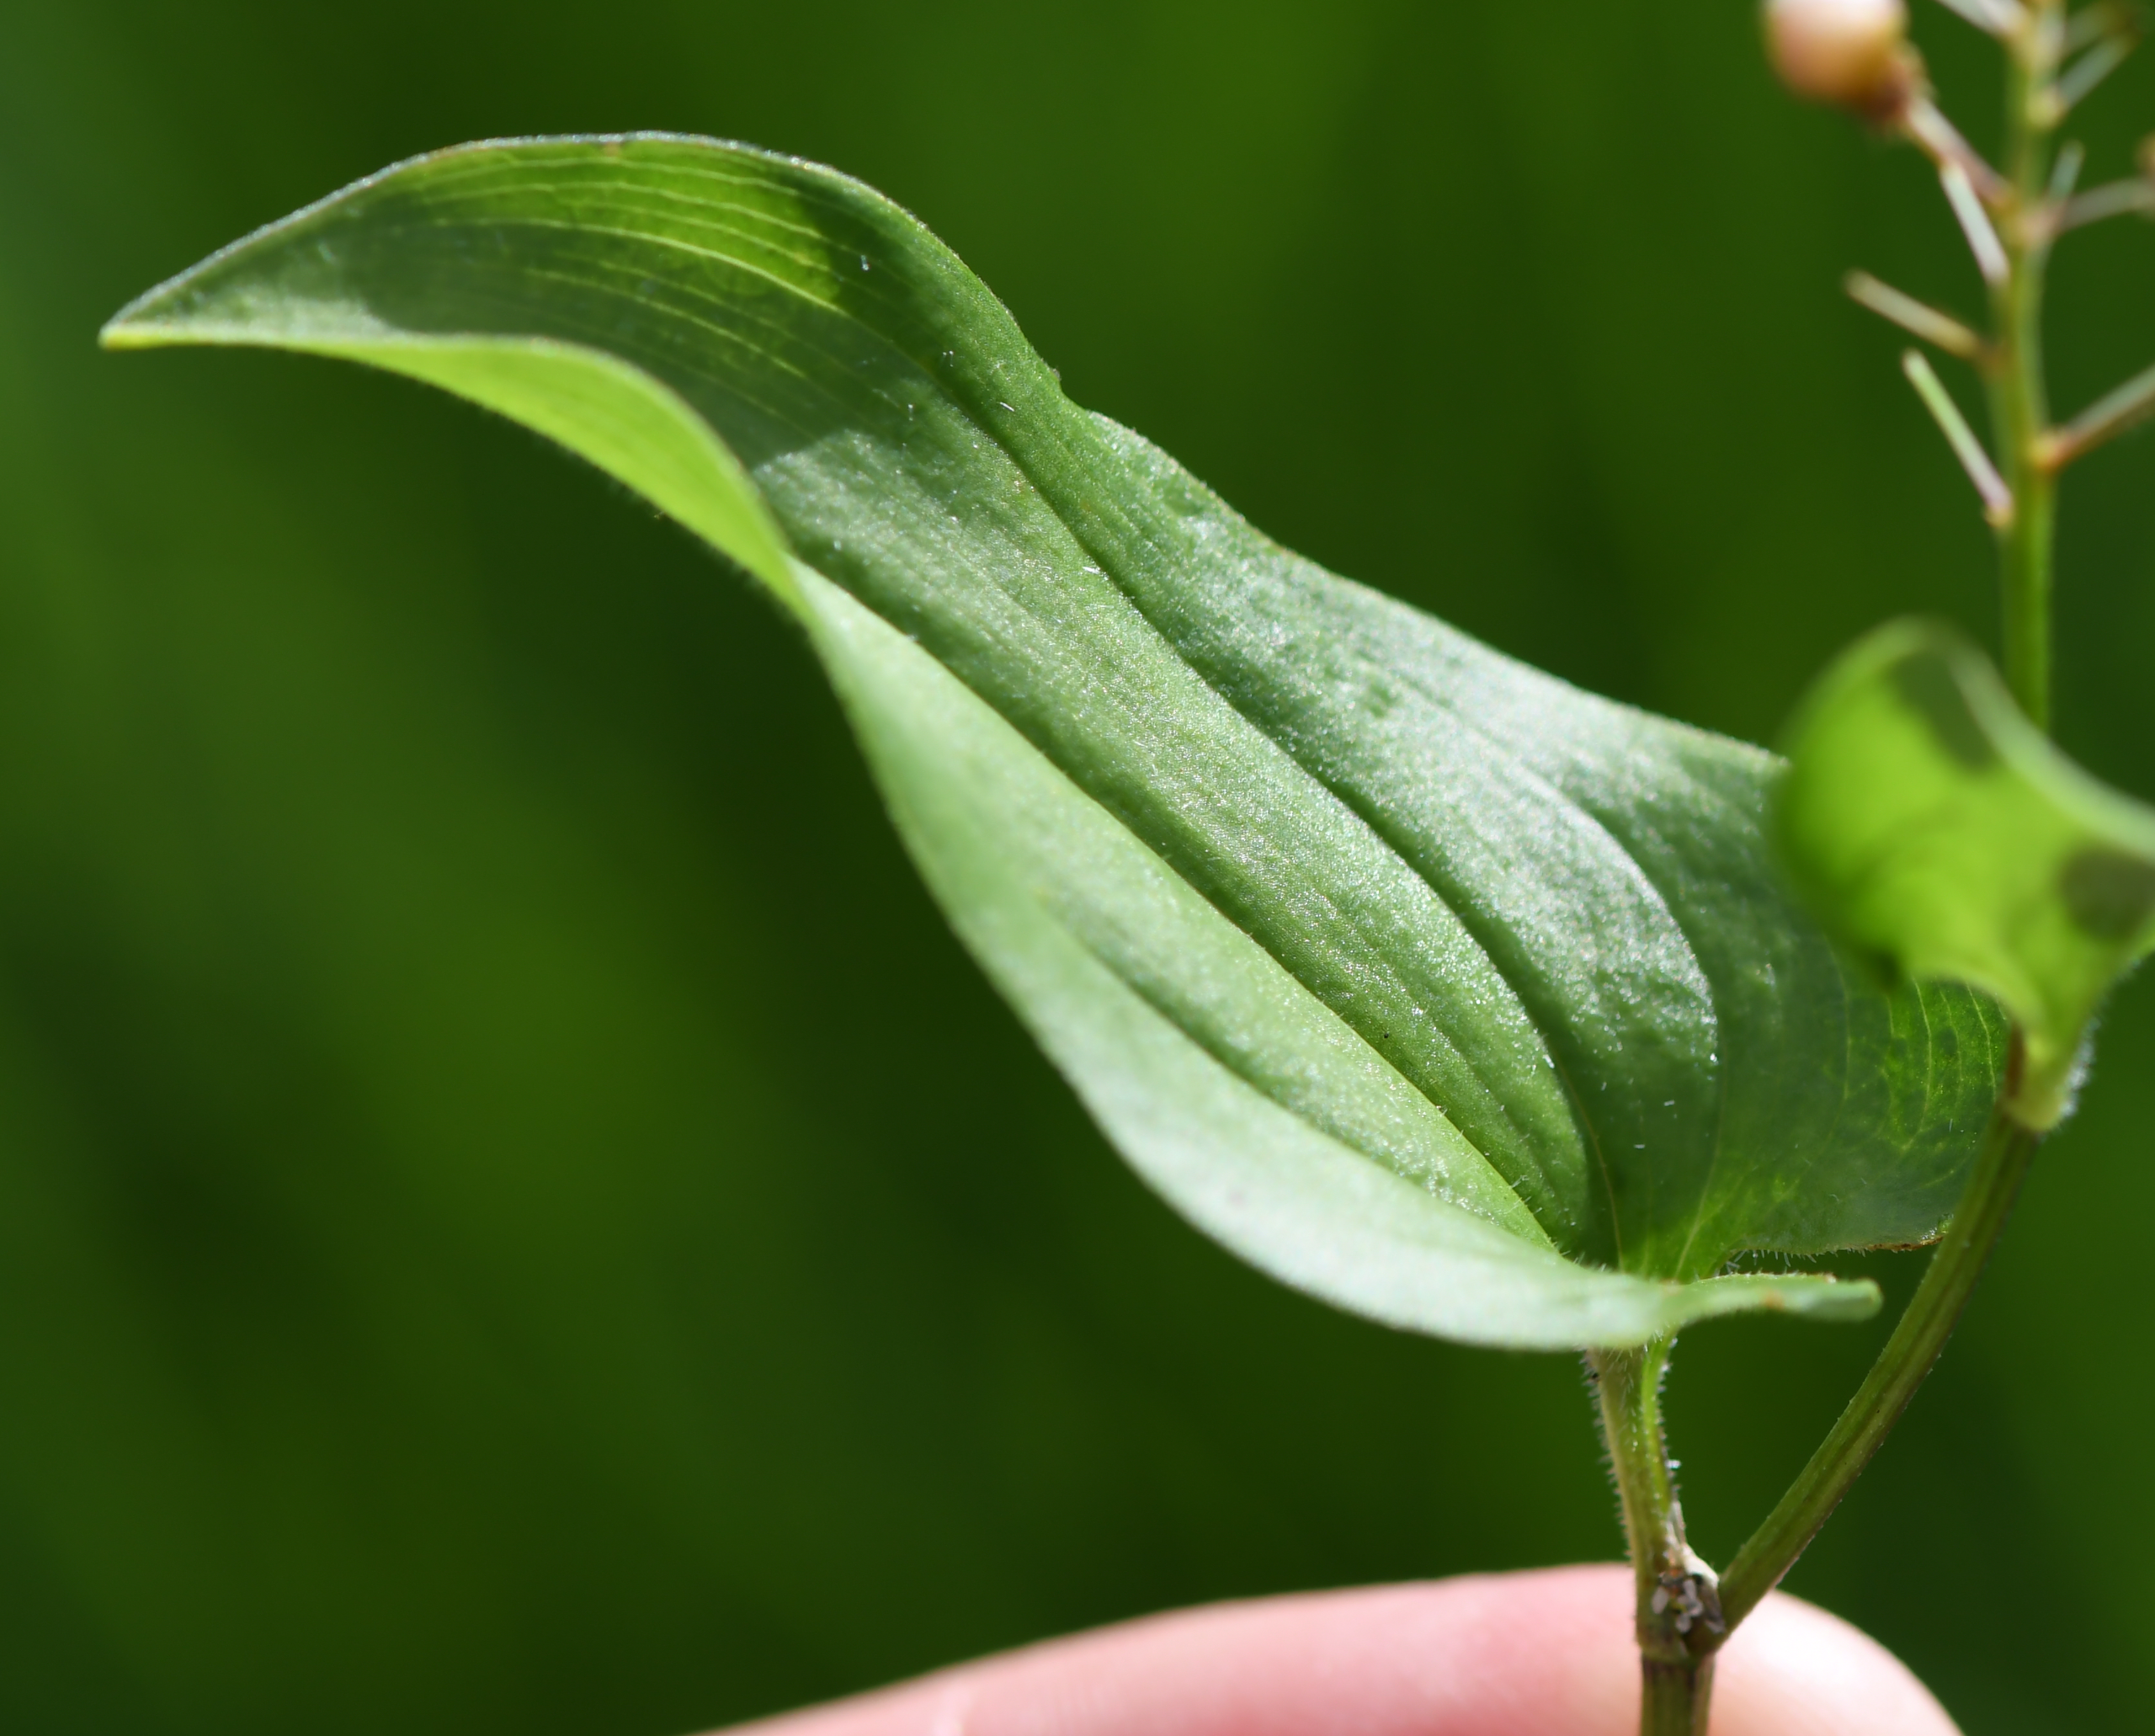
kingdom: Plantae
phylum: Tracheophyta
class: Liliopsida
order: Asparagales
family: Asparagaceae
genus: Maianthemum
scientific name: Maianthemum bifolium
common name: Majblomst
